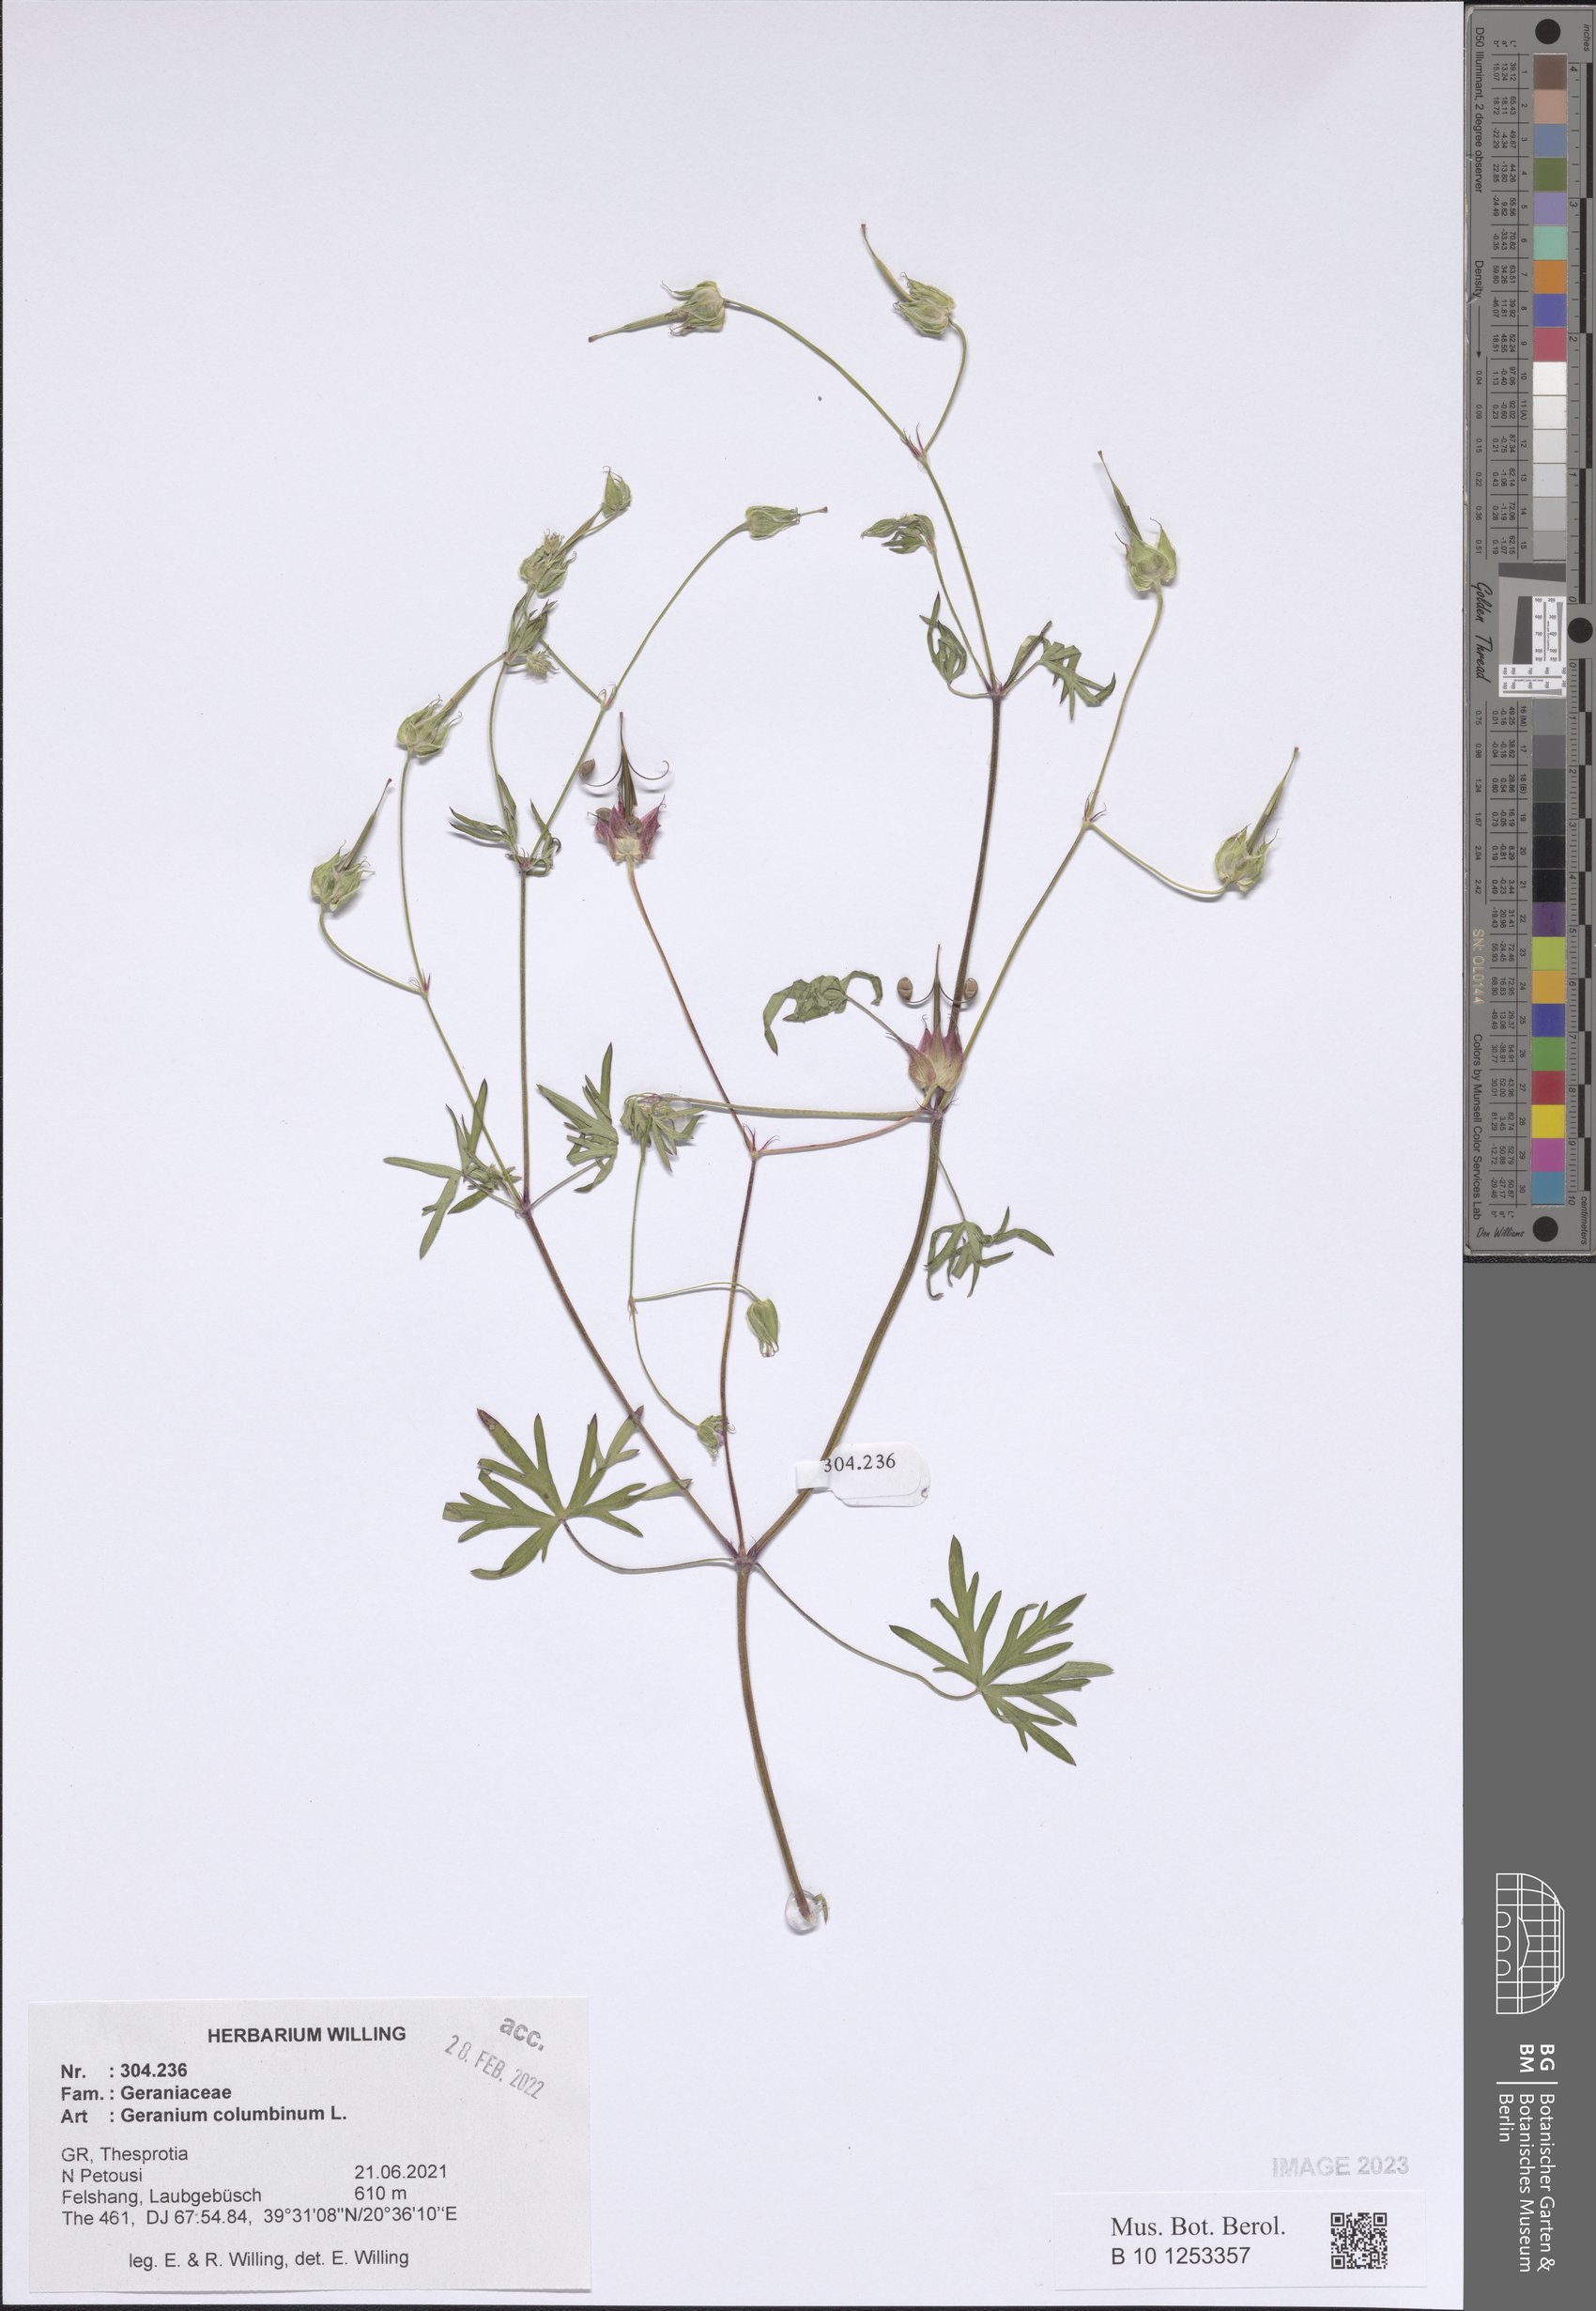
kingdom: Plantae
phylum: Tracheophyta
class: Magnoliopsida
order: Geraniales
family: Geraniaceae
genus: Geranium
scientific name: Geranium columbinum
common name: Long-stalked crane's-bill
